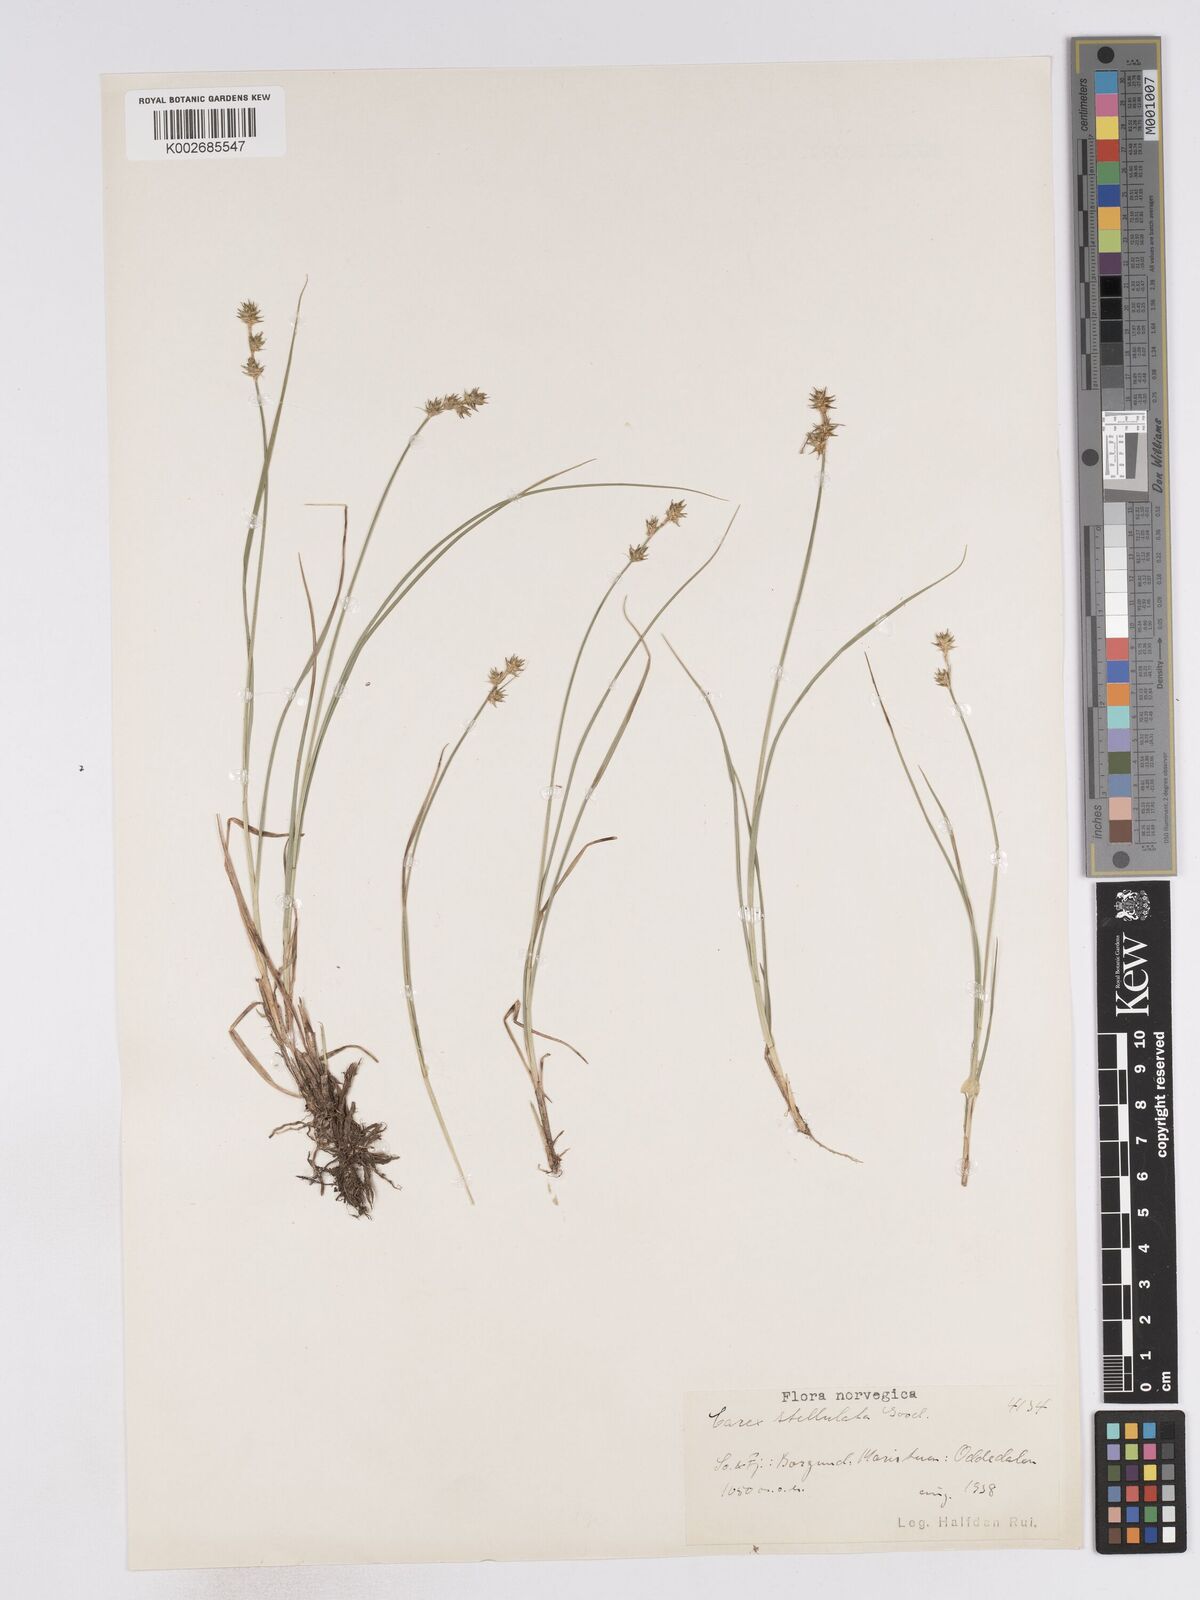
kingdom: Plantae
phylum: Tracheophyta
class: Liliopsida
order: Poales
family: Cyperaceae
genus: Carex
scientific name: Carex echinata
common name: Star sedge
